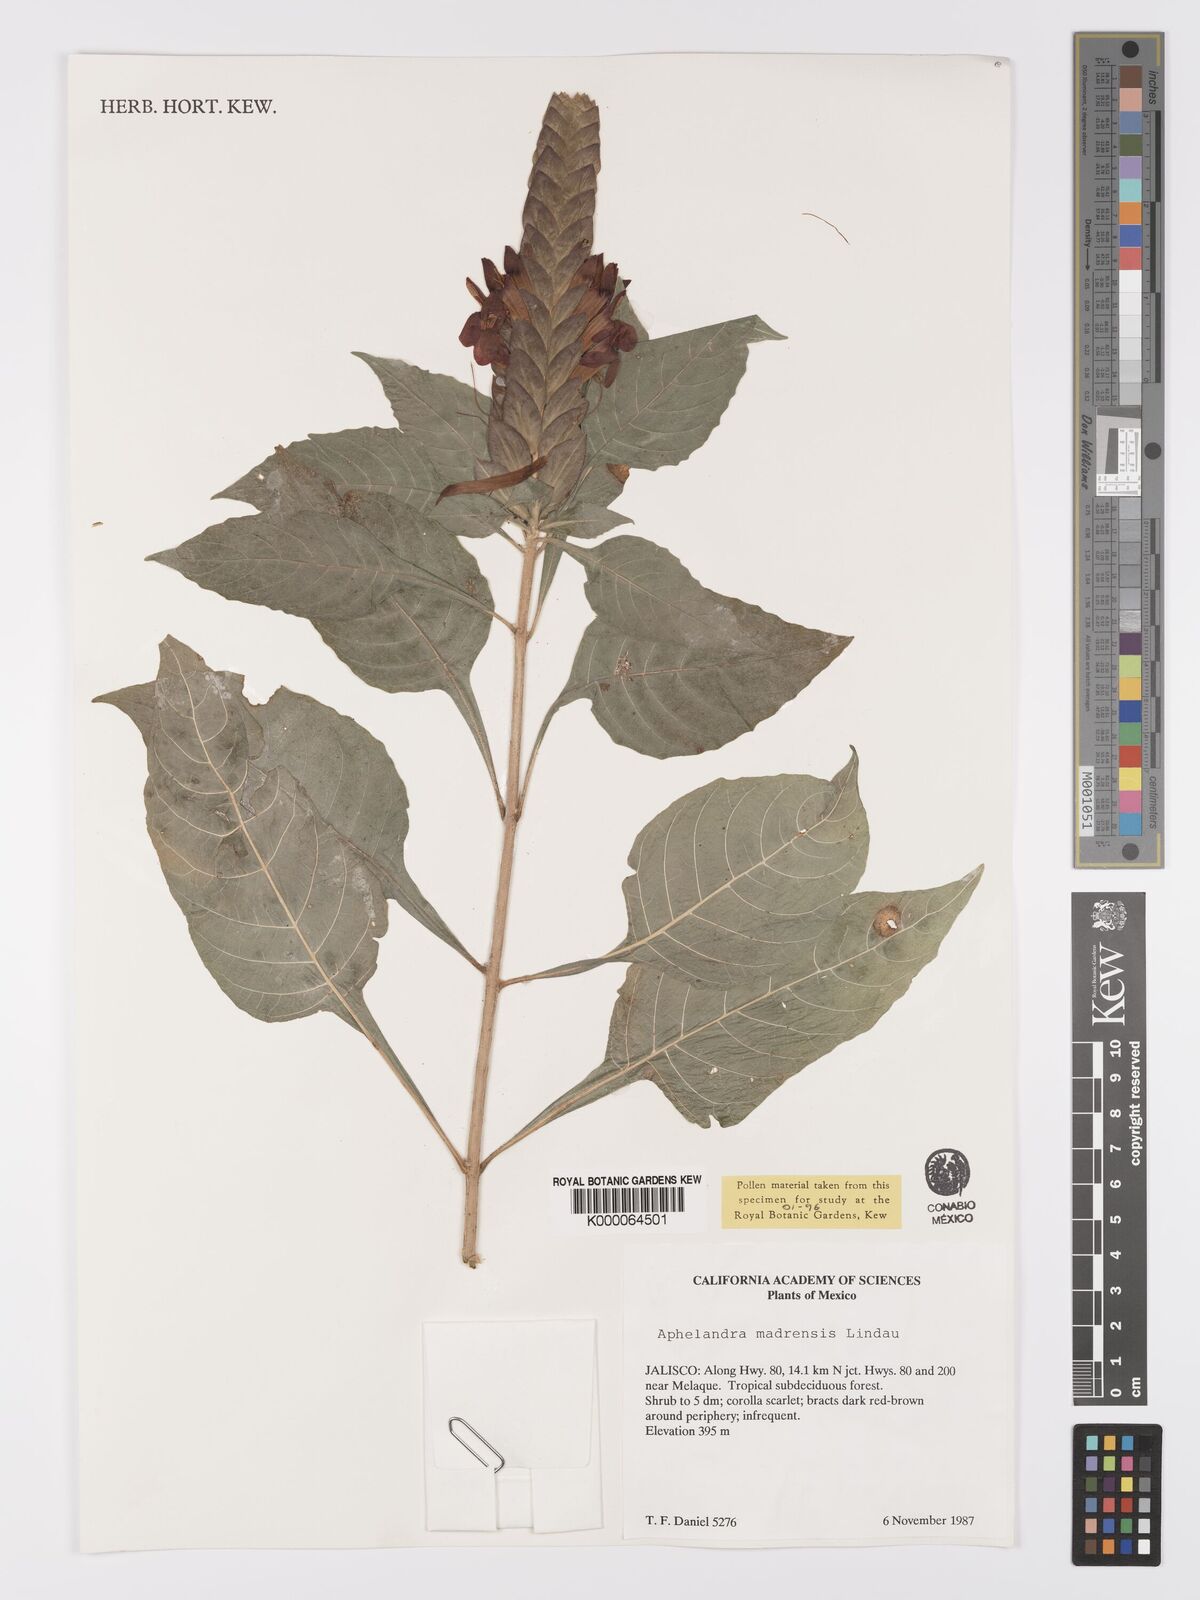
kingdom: Plantae
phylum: Tracheophyta
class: Magnoliopsida
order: Lamiales
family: Acanthaceae
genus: Aphelandra
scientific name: Aphelandra madrensis
